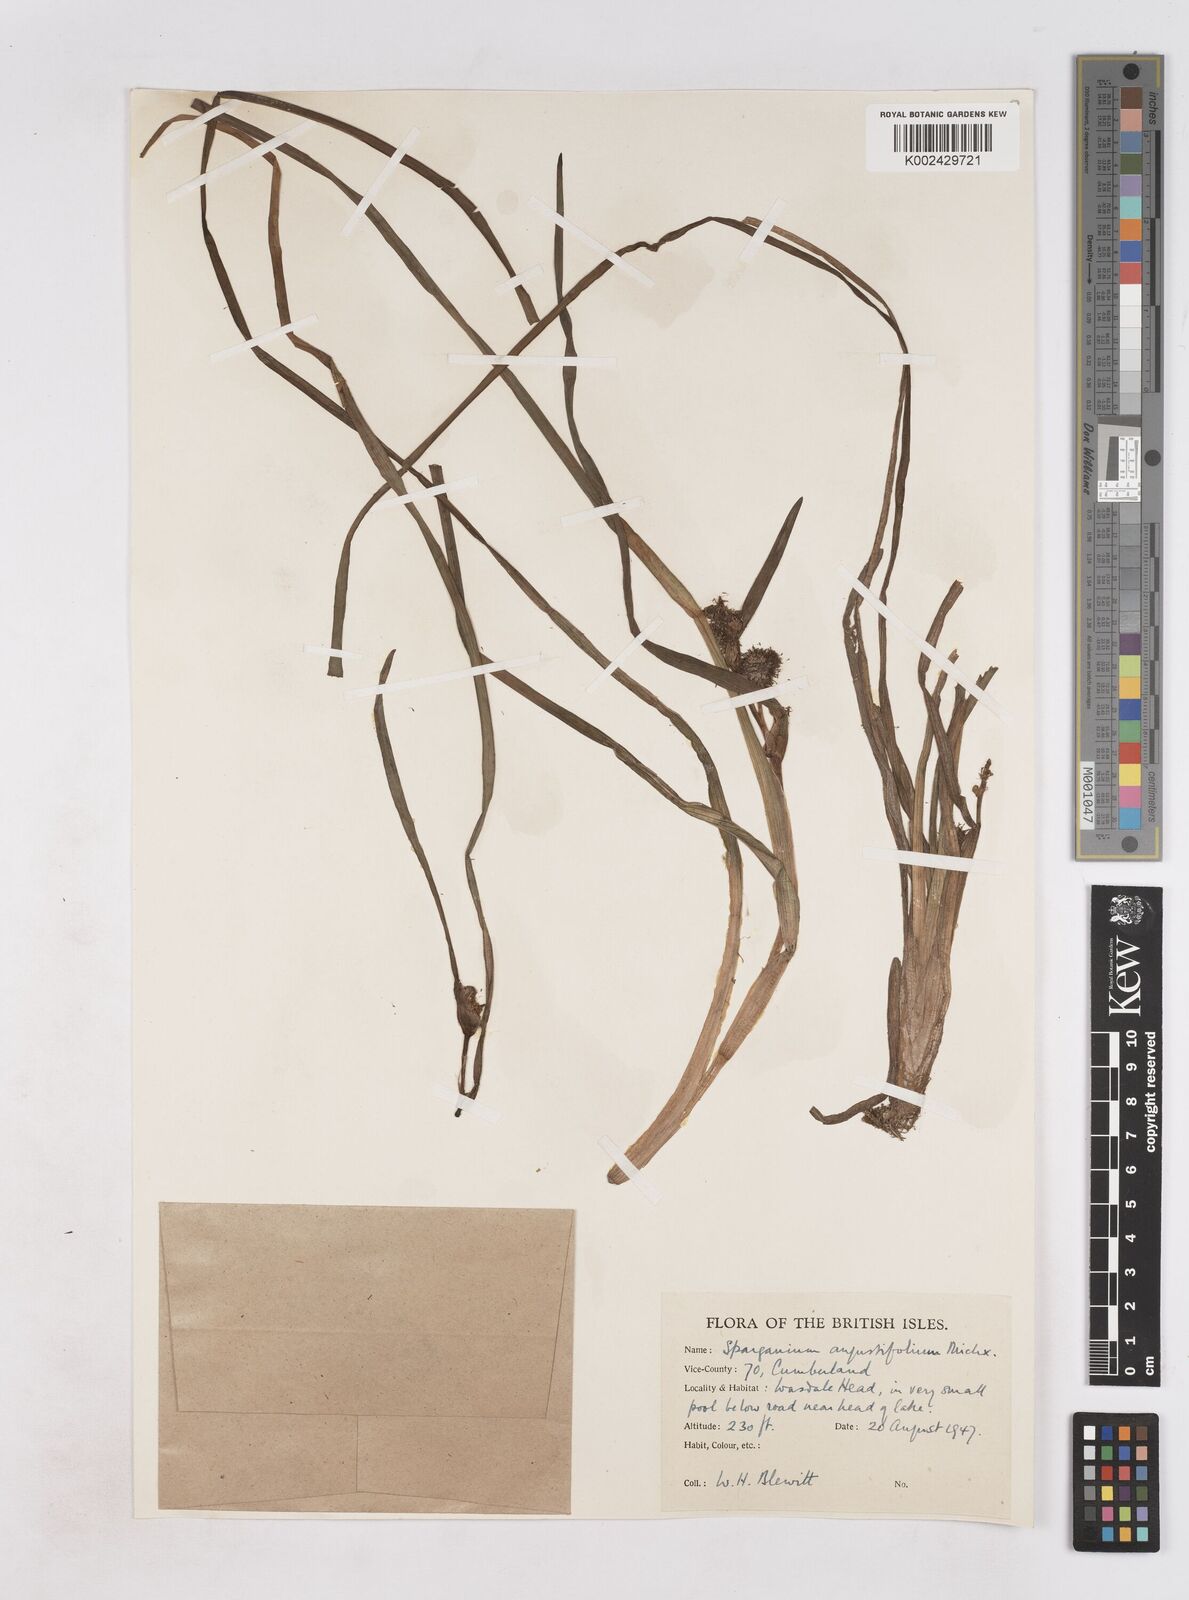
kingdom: Plantae
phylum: Tracheophyta
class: Liliopsida
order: Poales
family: Typhaceae
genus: Sparganium
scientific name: Sparganium angustifolium
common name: Floating bur-reed
